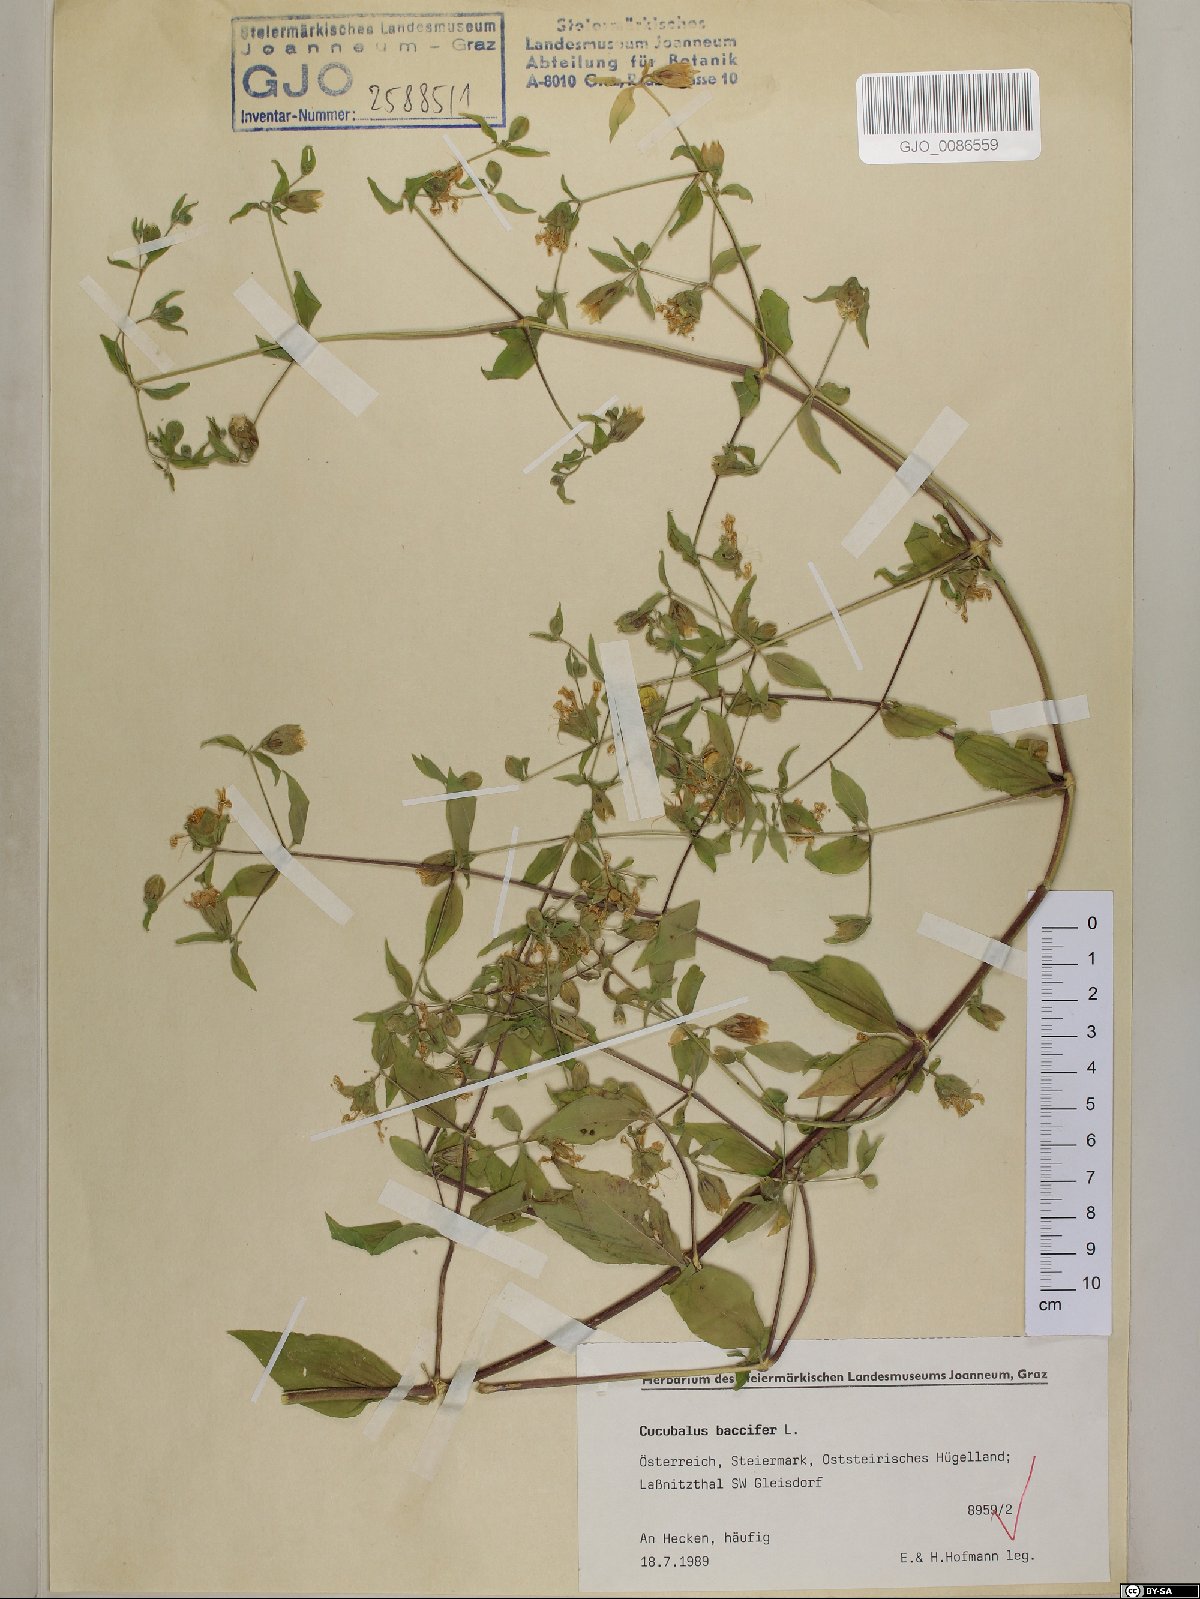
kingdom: Plantae
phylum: Tracheophyta
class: Magnoliopsida
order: Caryophyllales
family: Caryophyllaceae
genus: Silene
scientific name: Silene baccifera
